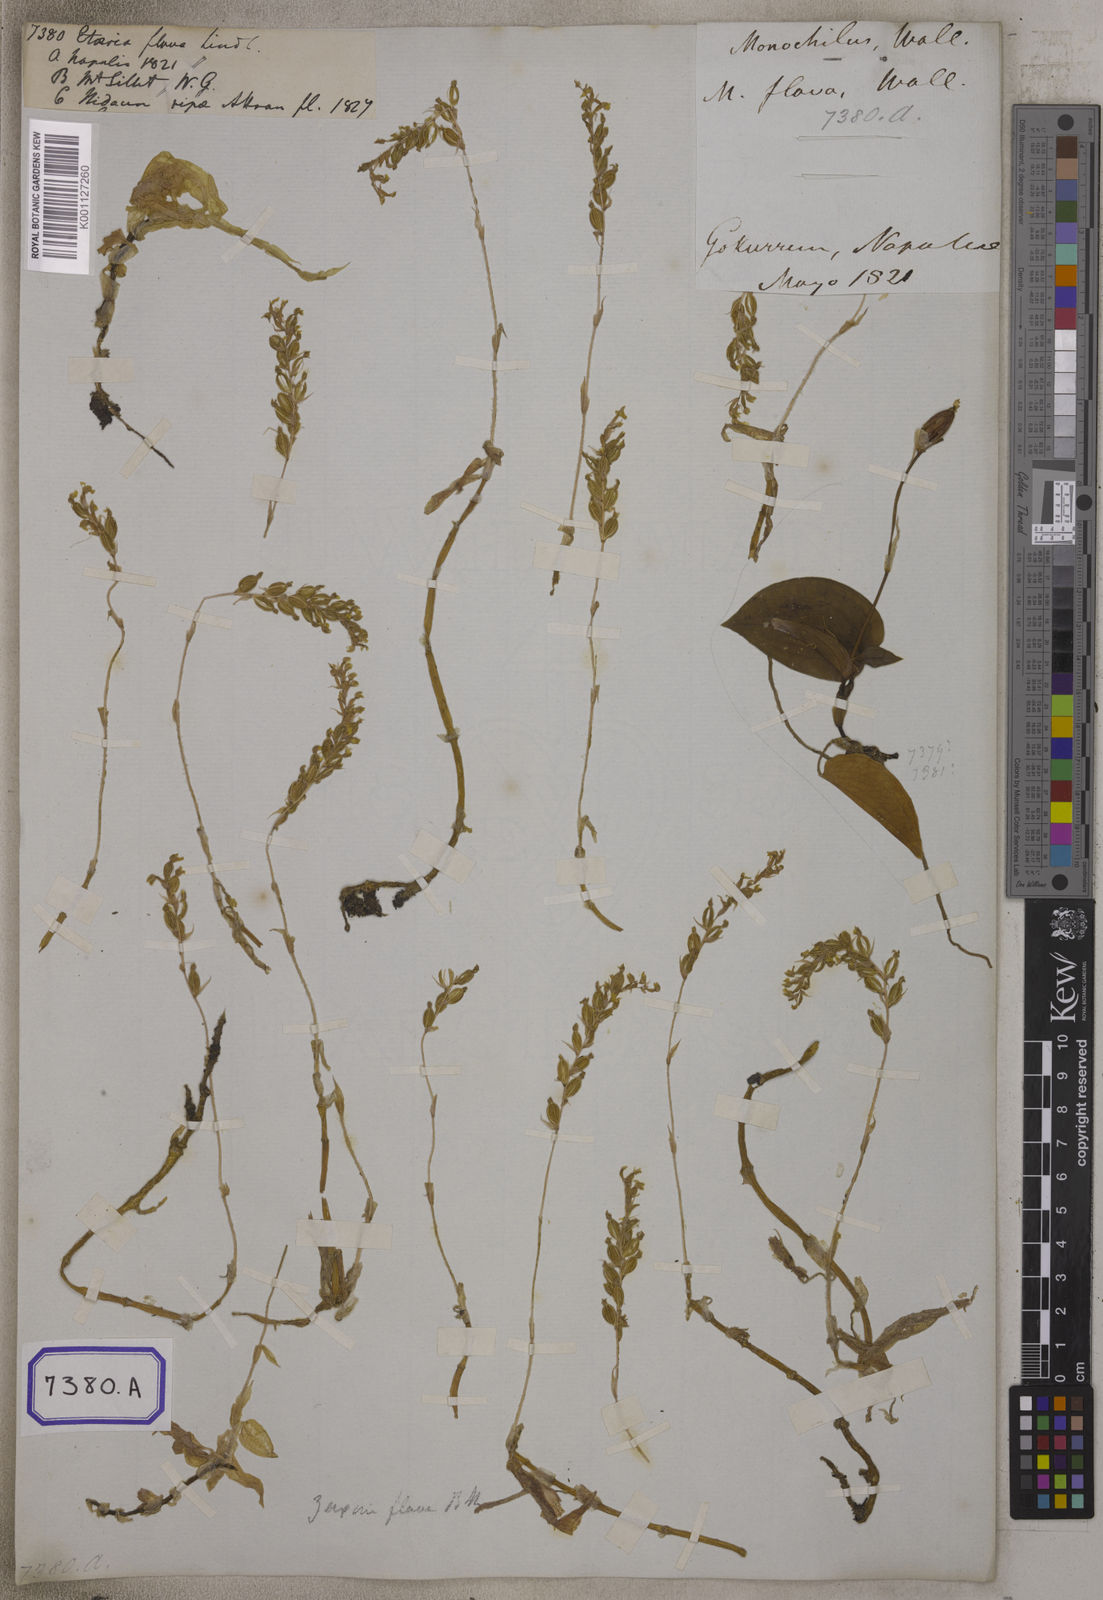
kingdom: Plantae
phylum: Tracheophyta
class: Liliopsida
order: Asparagales
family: Orchidaceae
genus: Hetaeria
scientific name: Hetaeria
